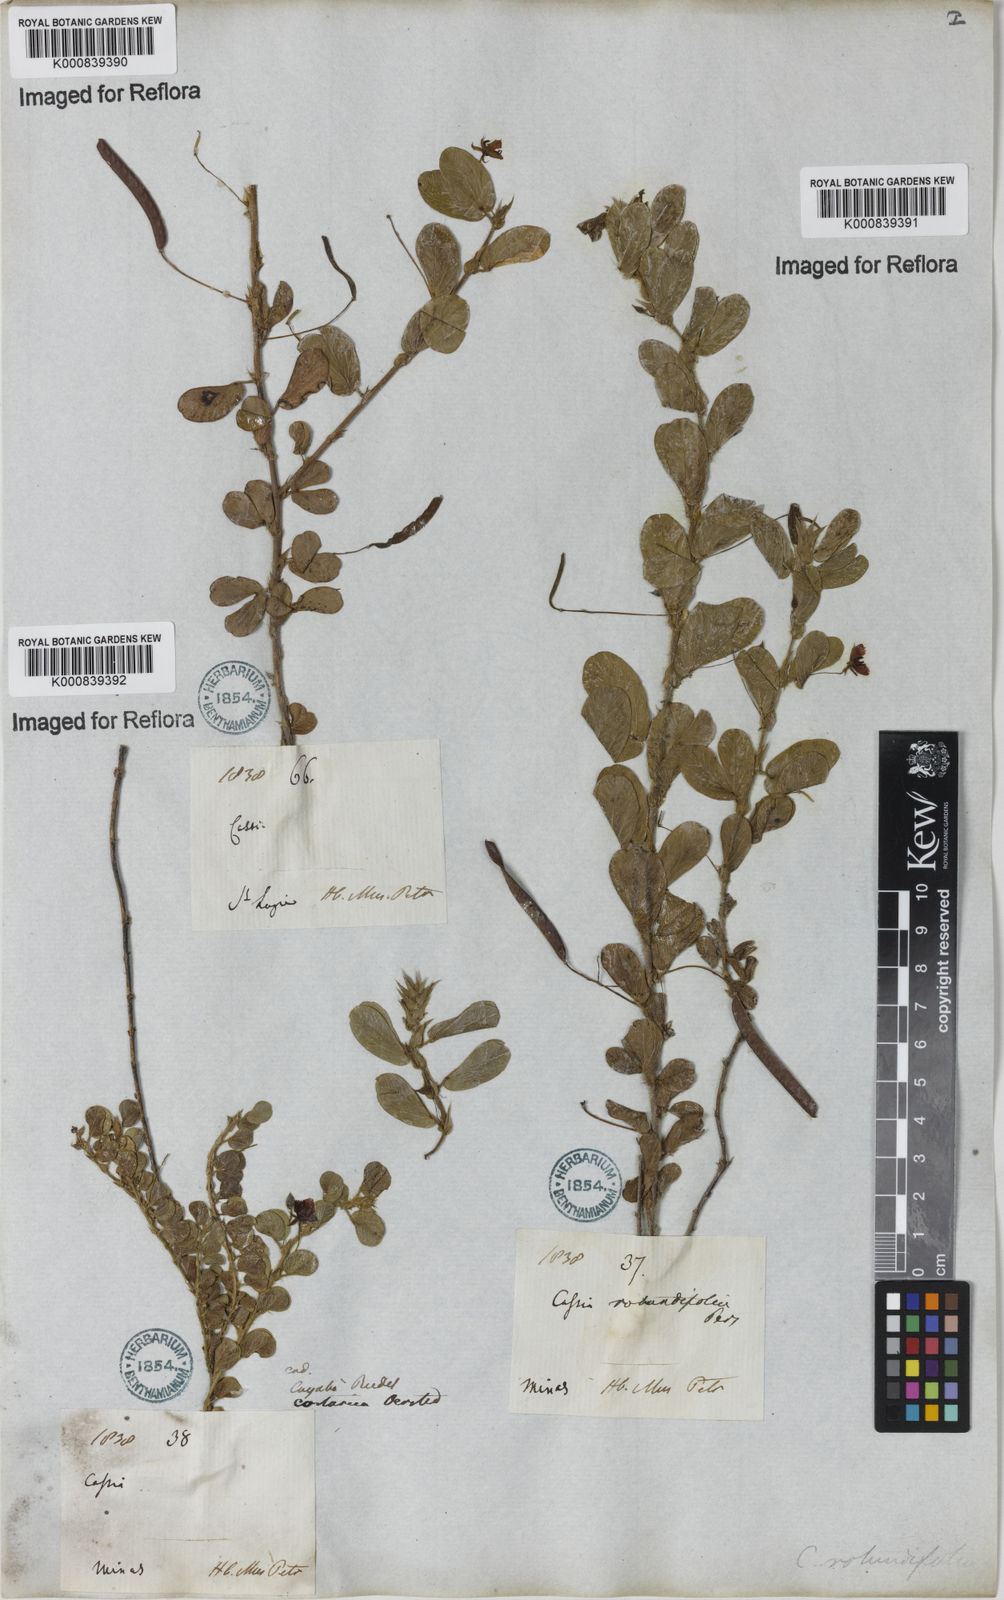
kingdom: Plantae
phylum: Tracheophyta
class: Magnoliopsida
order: Fabales
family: Fabaceae
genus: Chamaecrista
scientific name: Chamaecrista rotundifolia
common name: Round-leaf cassia
